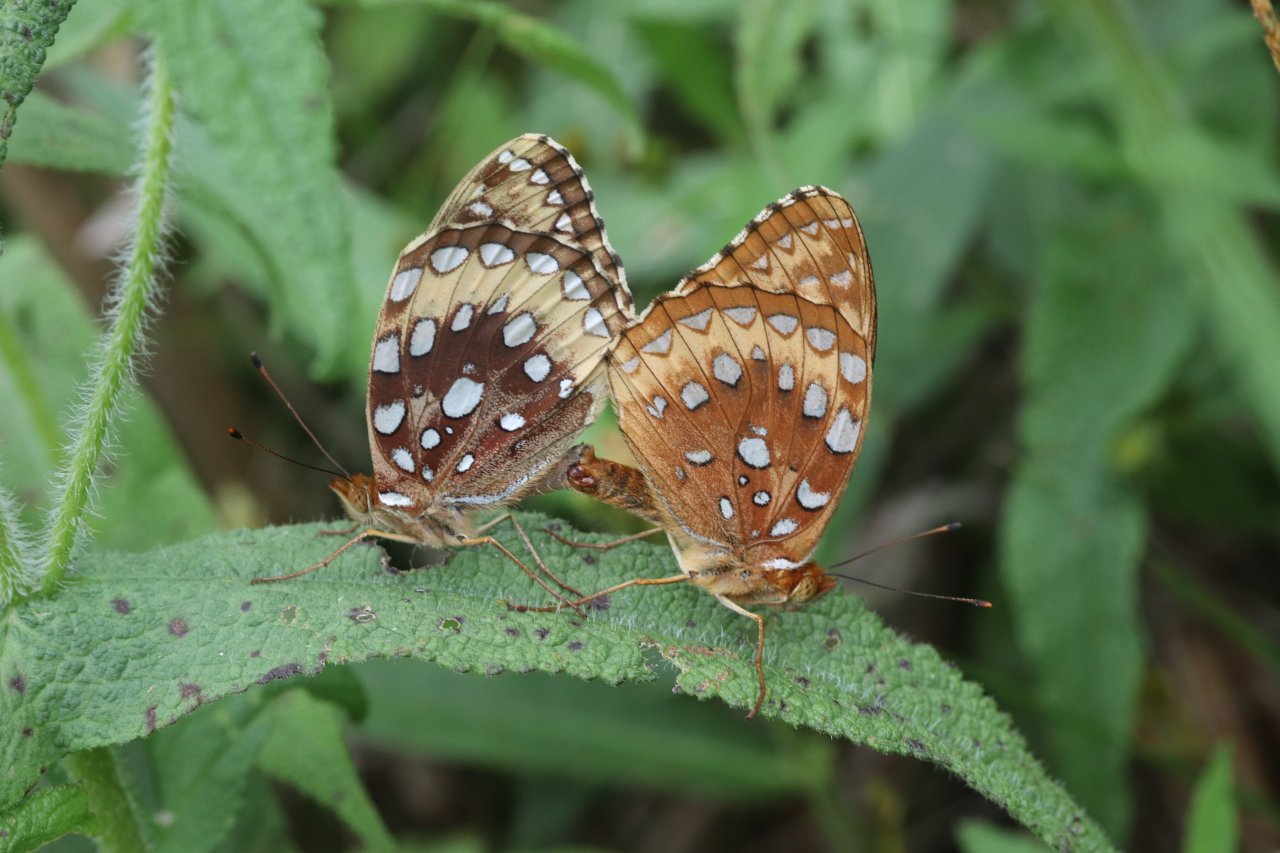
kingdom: Animalia
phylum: Arthropoda
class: Insecta
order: Lepidoptera
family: Nymphalidae
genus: Speyeria
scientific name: Speyeria cybele
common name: Great Spangled Fritillary
